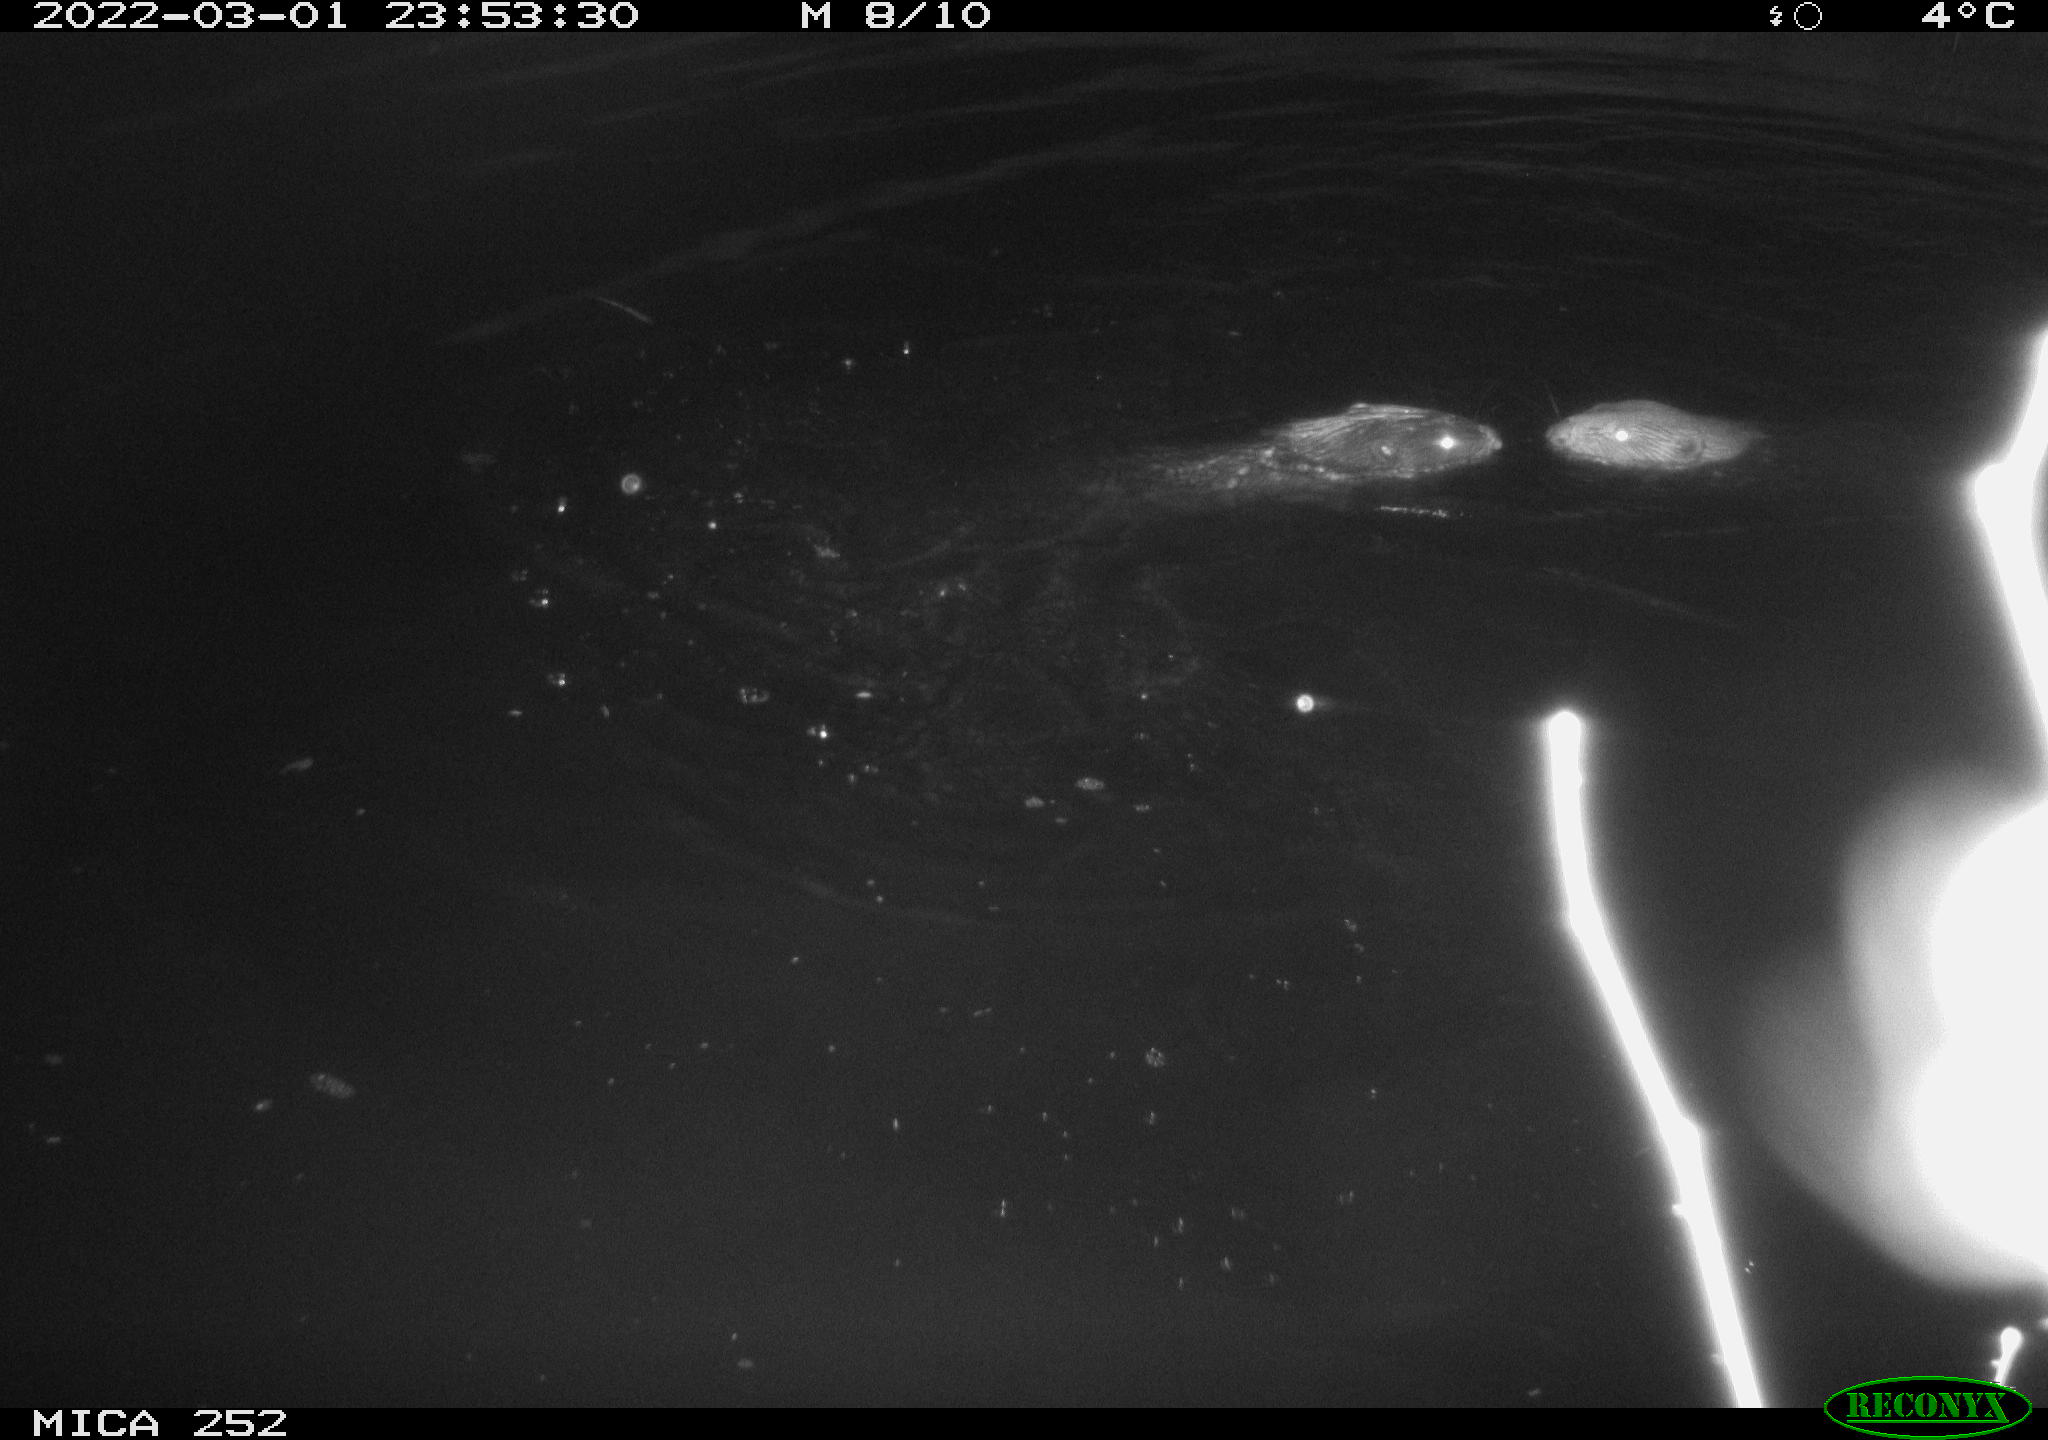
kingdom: Animalia
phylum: Chordata
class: Mammalia
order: Rodentia
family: Castoridae
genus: Castor
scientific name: Castor fiber
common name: Eurasian beaver
